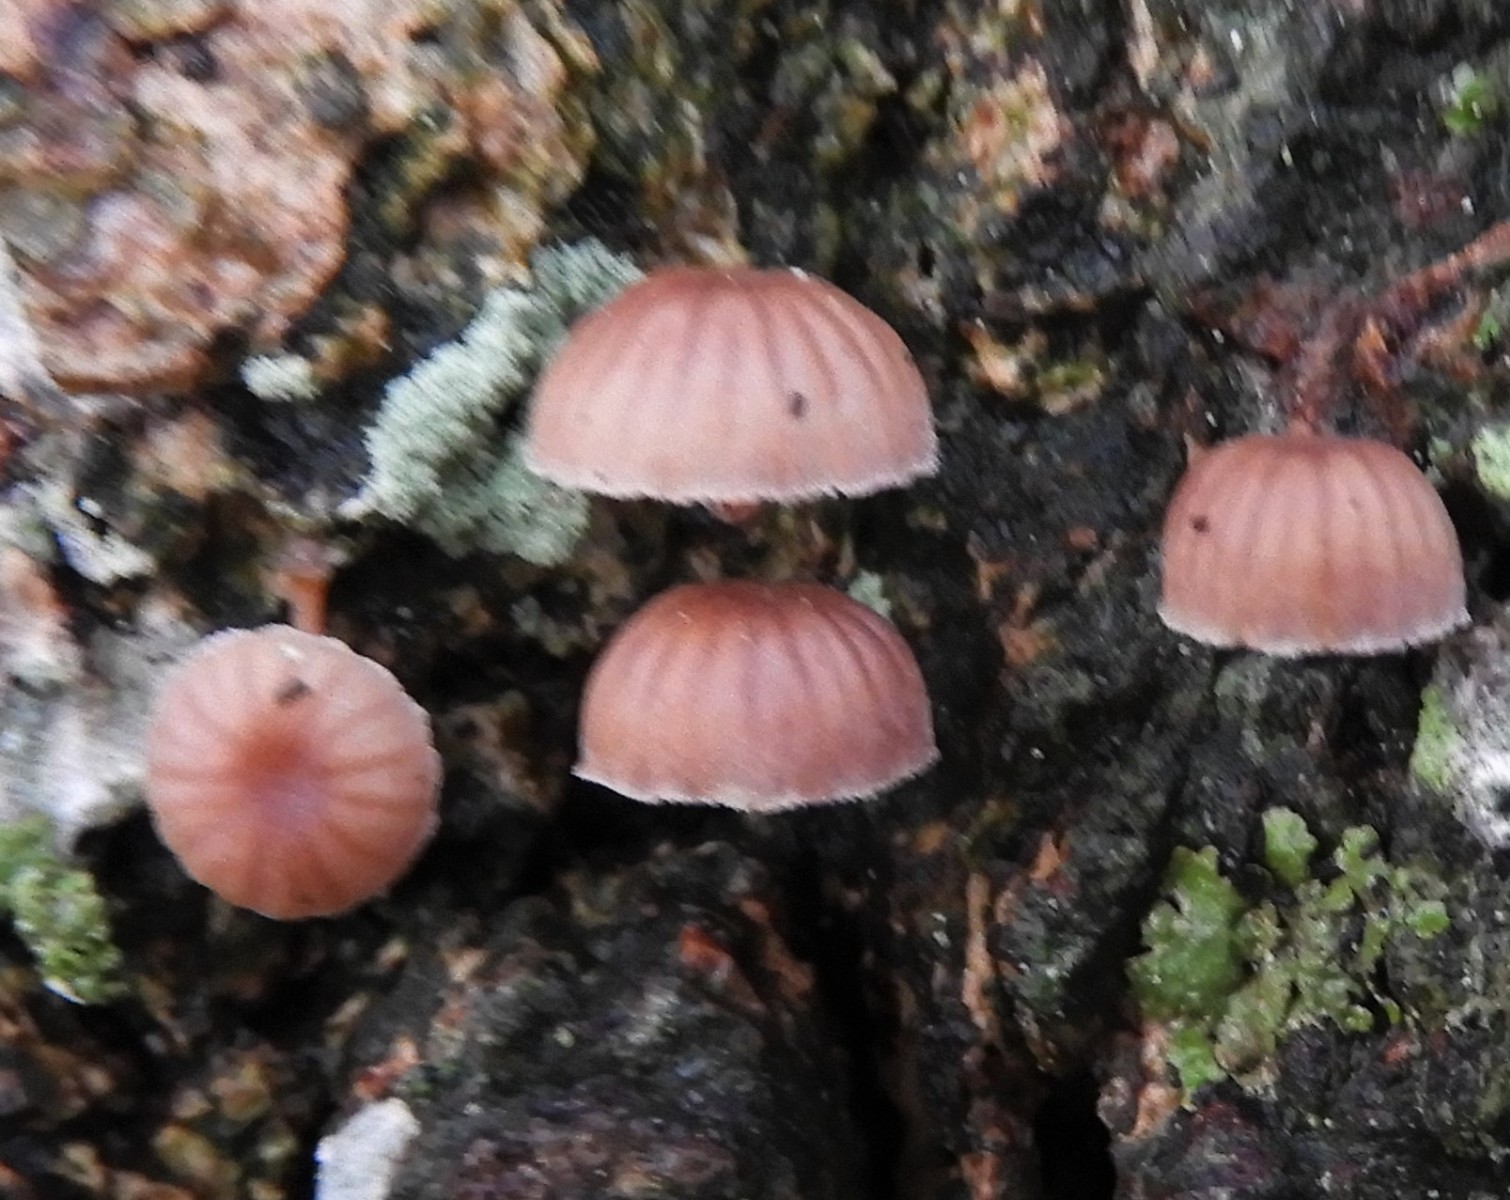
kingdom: Fungi
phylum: Basidiomycota
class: Agaricomycetes
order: Agaricales
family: Mycenaceae
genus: Mycena
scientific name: Mycena meliigena
